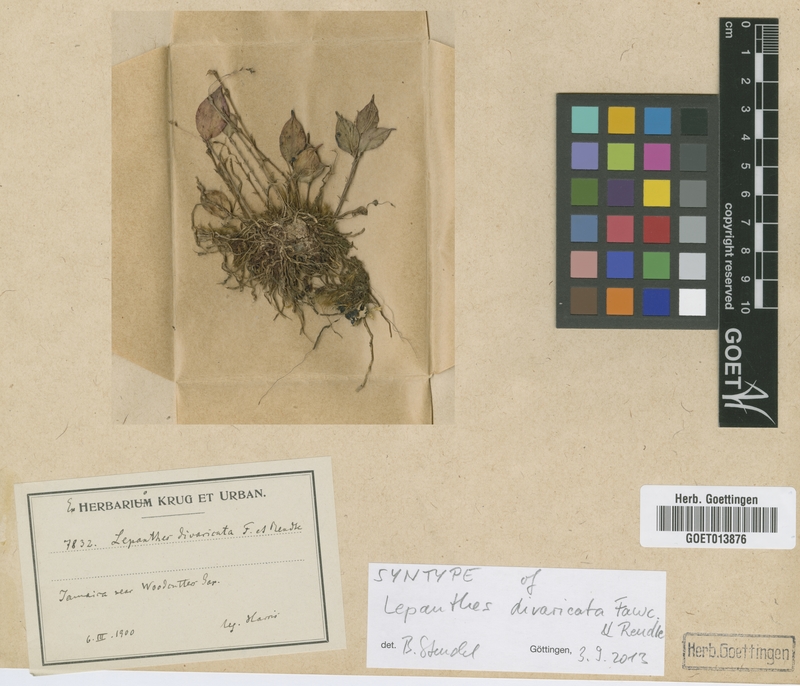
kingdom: Plantae
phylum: Tracheophyta
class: Liliopsida
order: Asparagales
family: Orchidaceae
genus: Lepanthes
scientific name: Lepanthes divaricata
